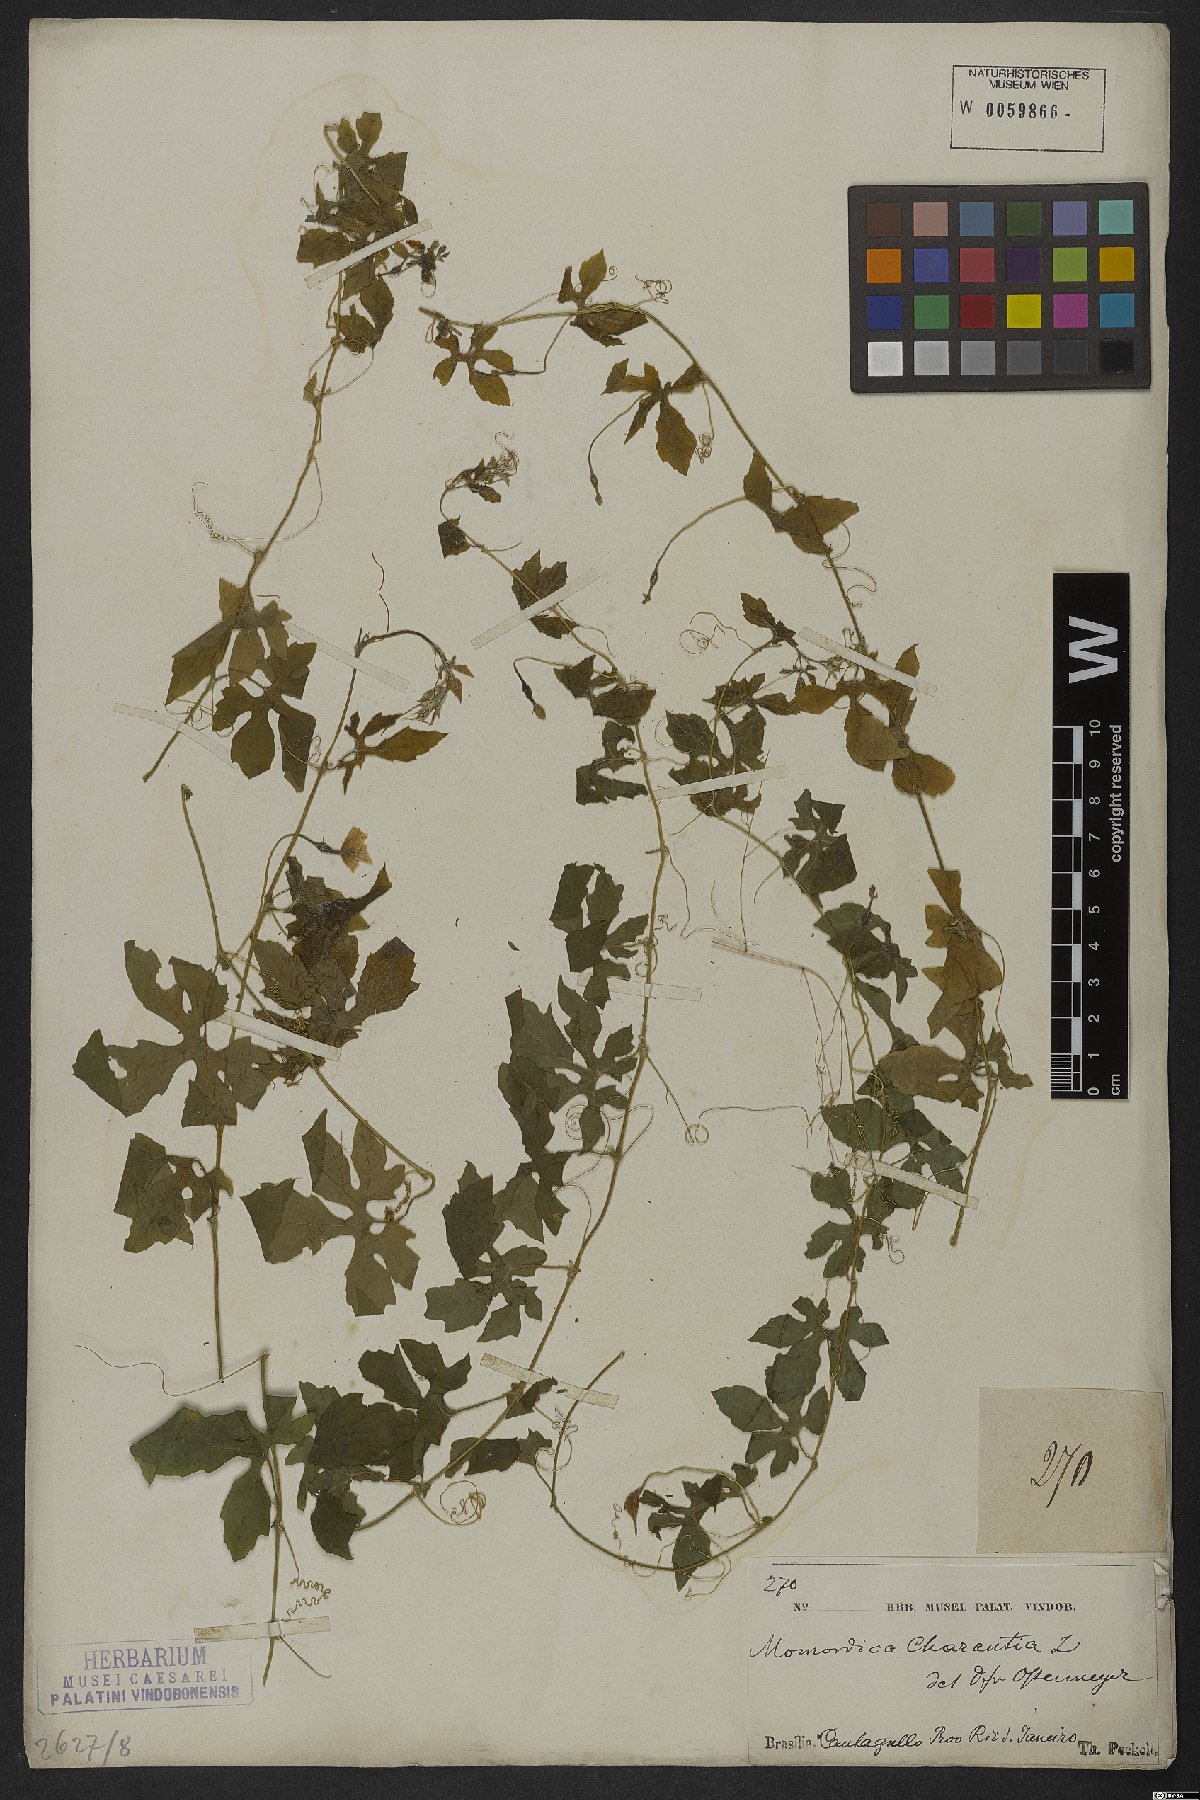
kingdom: Plantae
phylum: Tracheophyta
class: Magnoliopsida
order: Cucurbitales
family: Cucurbitaceae
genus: Momordica
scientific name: Momordica charantia
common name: Balsampear
